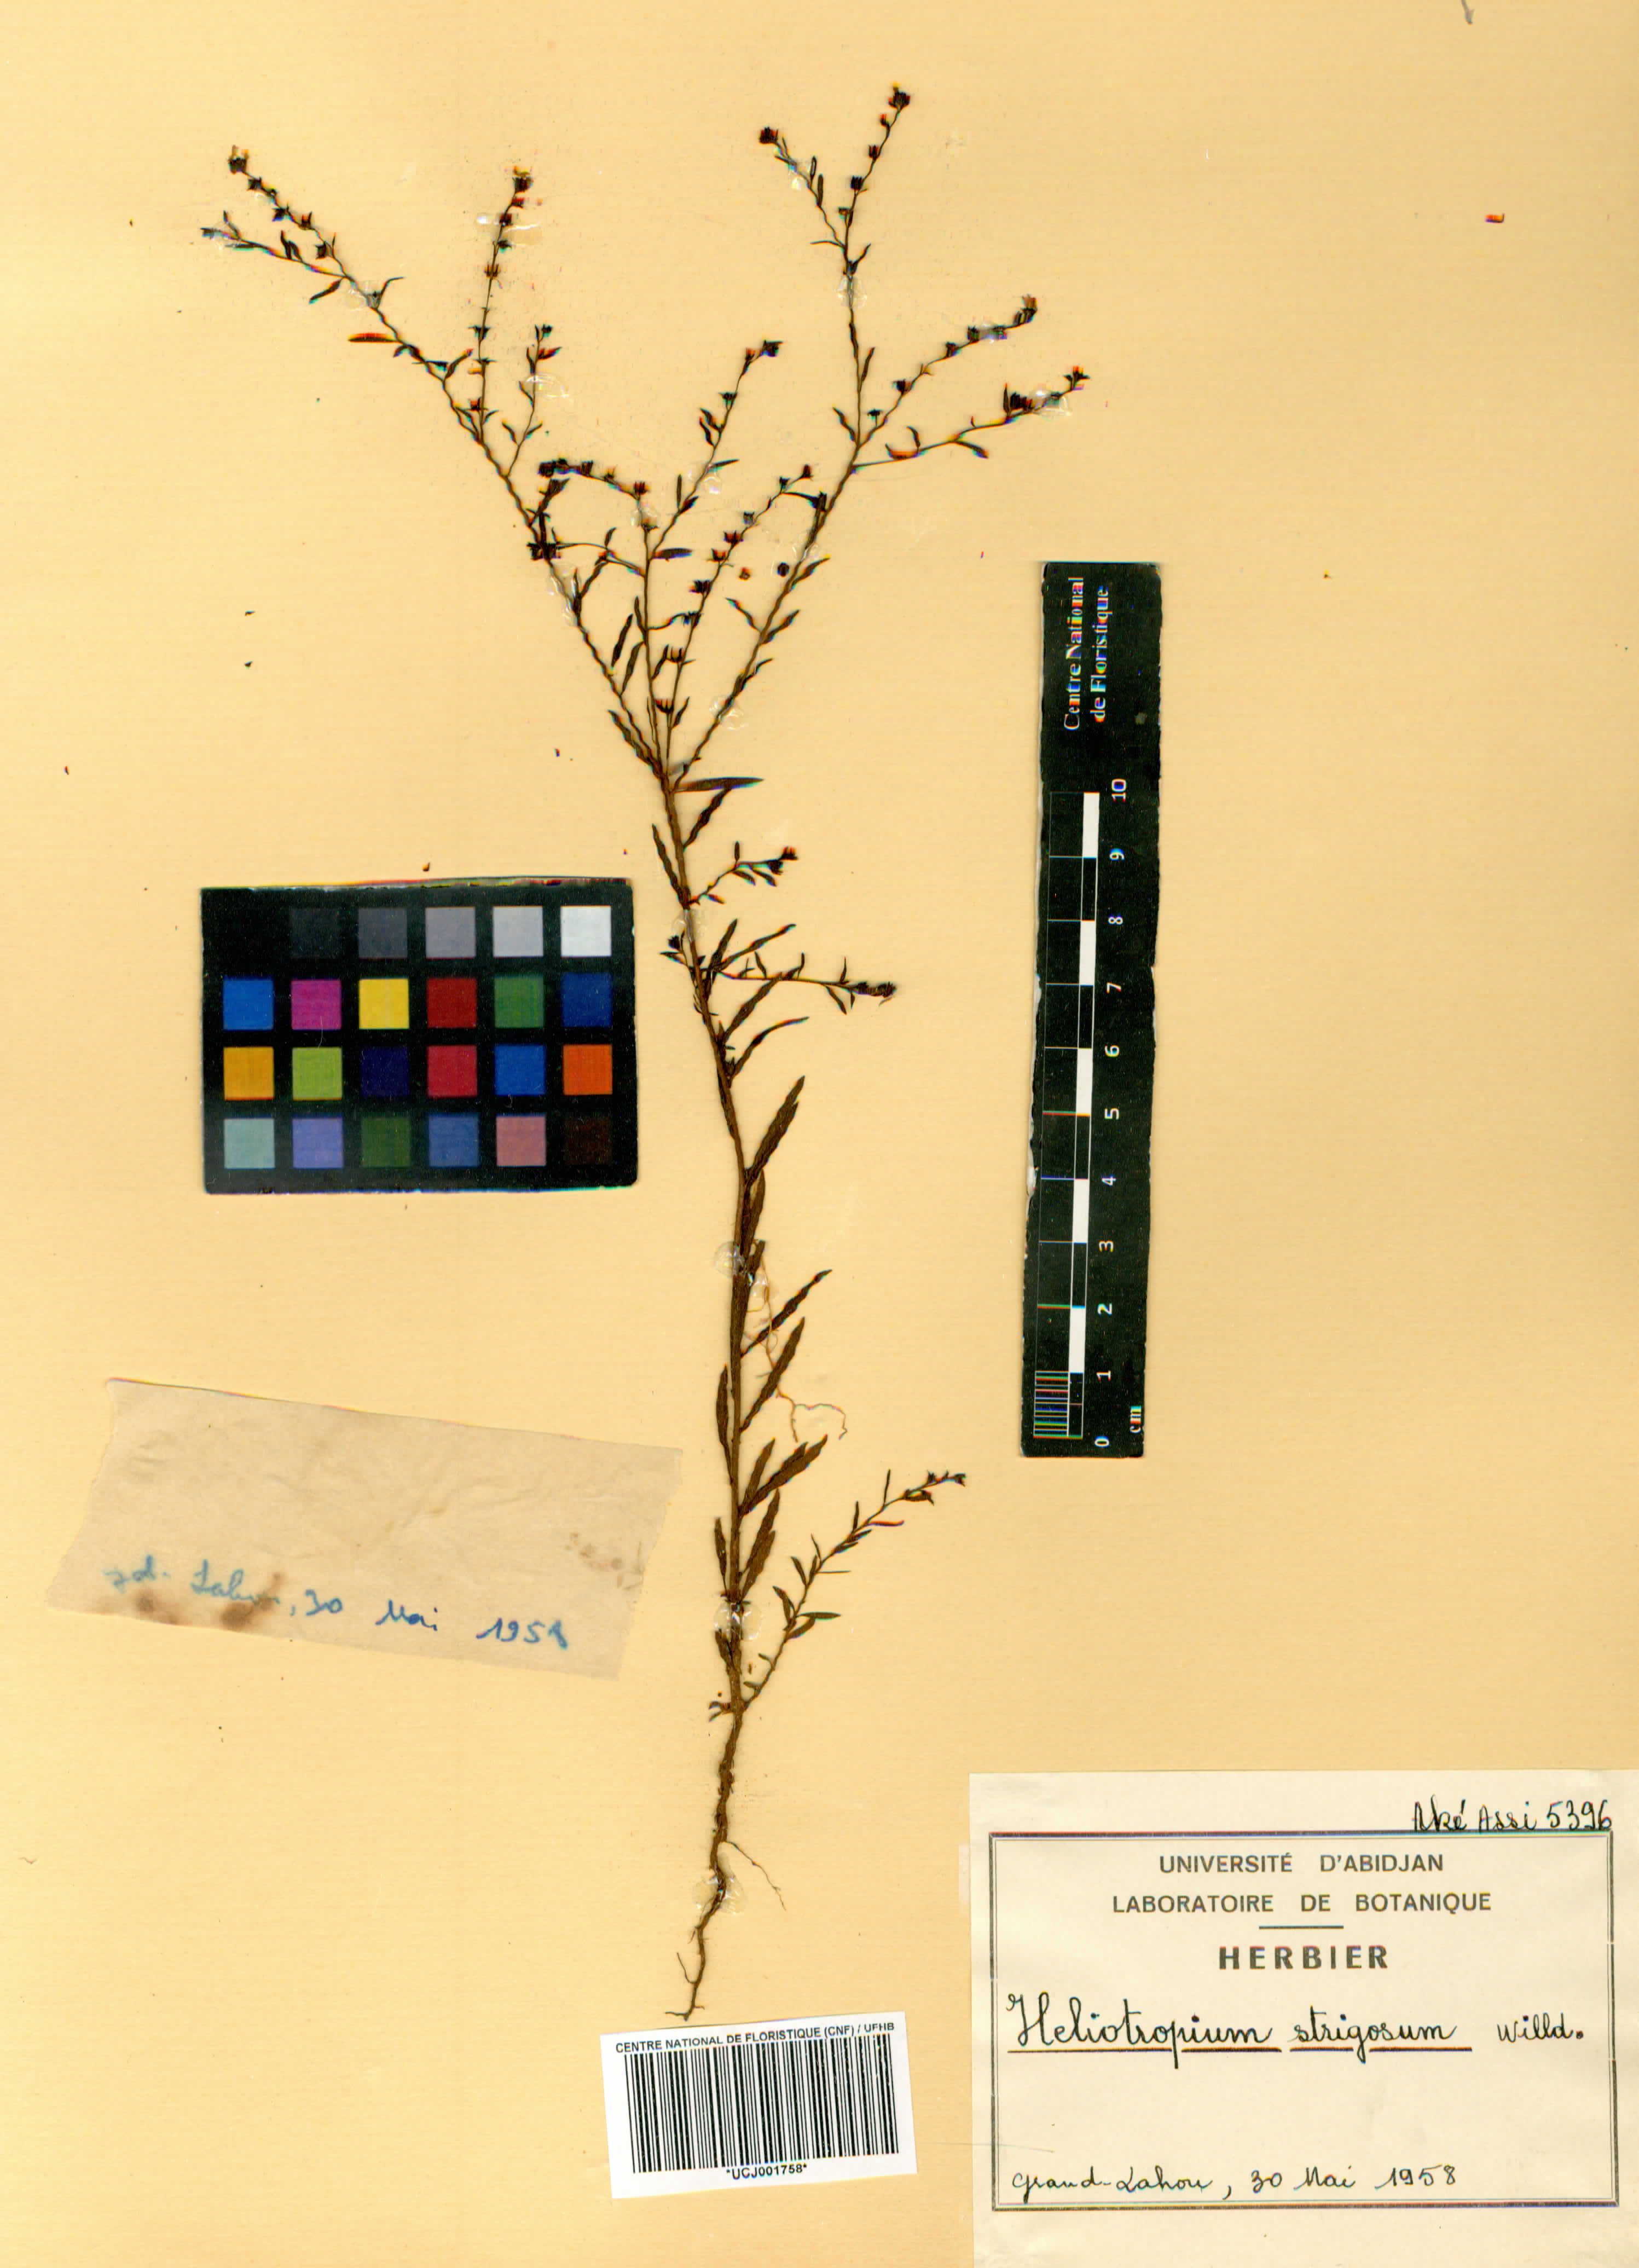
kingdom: Plantae
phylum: Tracheophyta
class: Magnoliopsida
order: Boraginales
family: Heliotropiaceae
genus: Euploca
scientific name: Euploca strigosa
